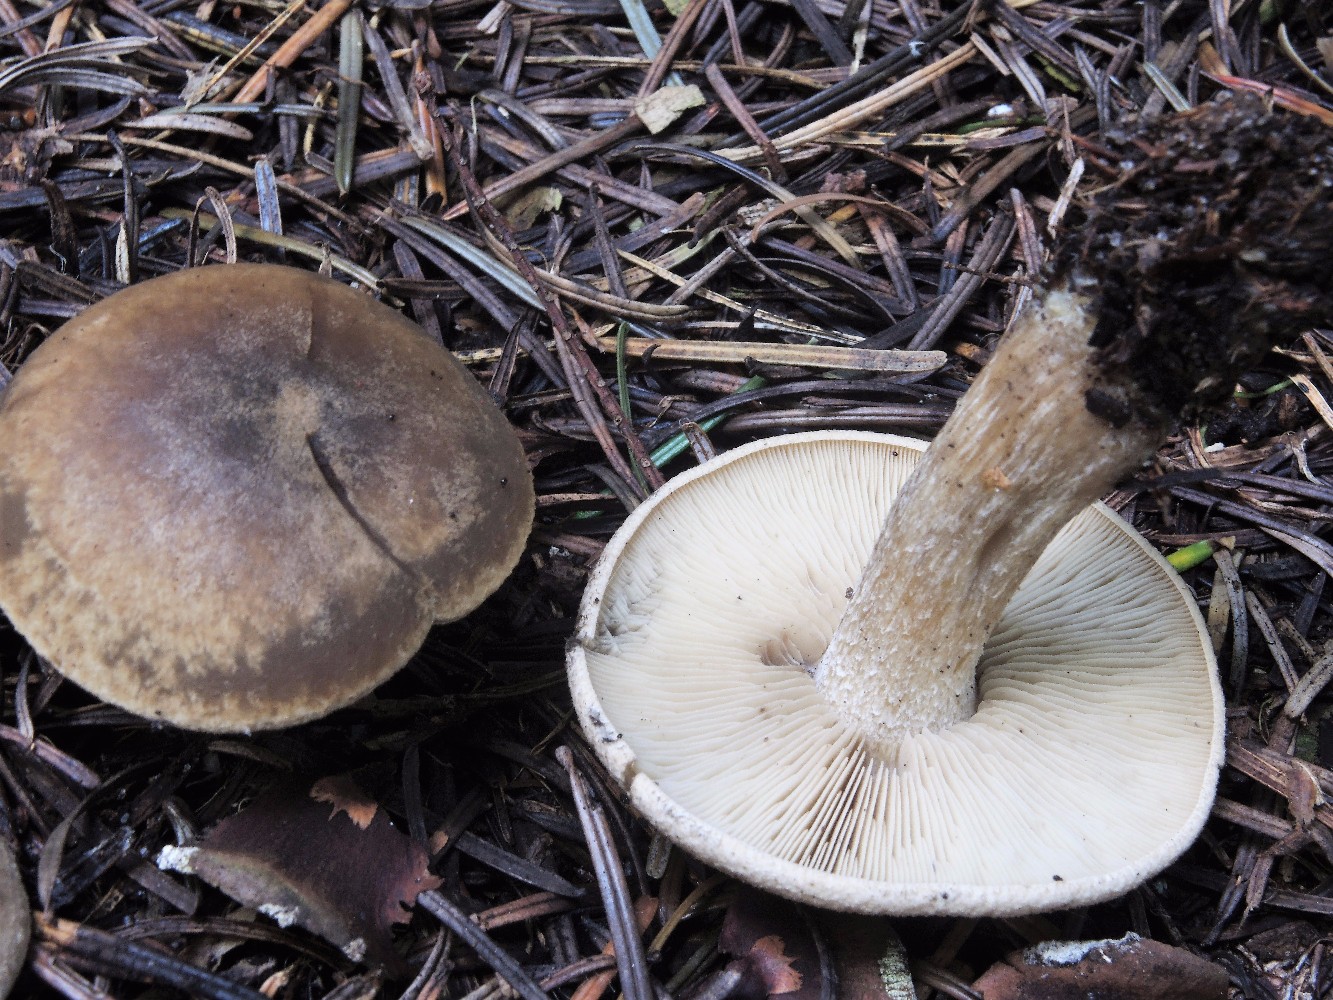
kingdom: Fungi
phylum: Basidiomycota
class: Agaricomycetes
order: Agaricales
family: Lyophyllaceae
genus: Calocybe
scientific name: Calocybe gangraenosa
